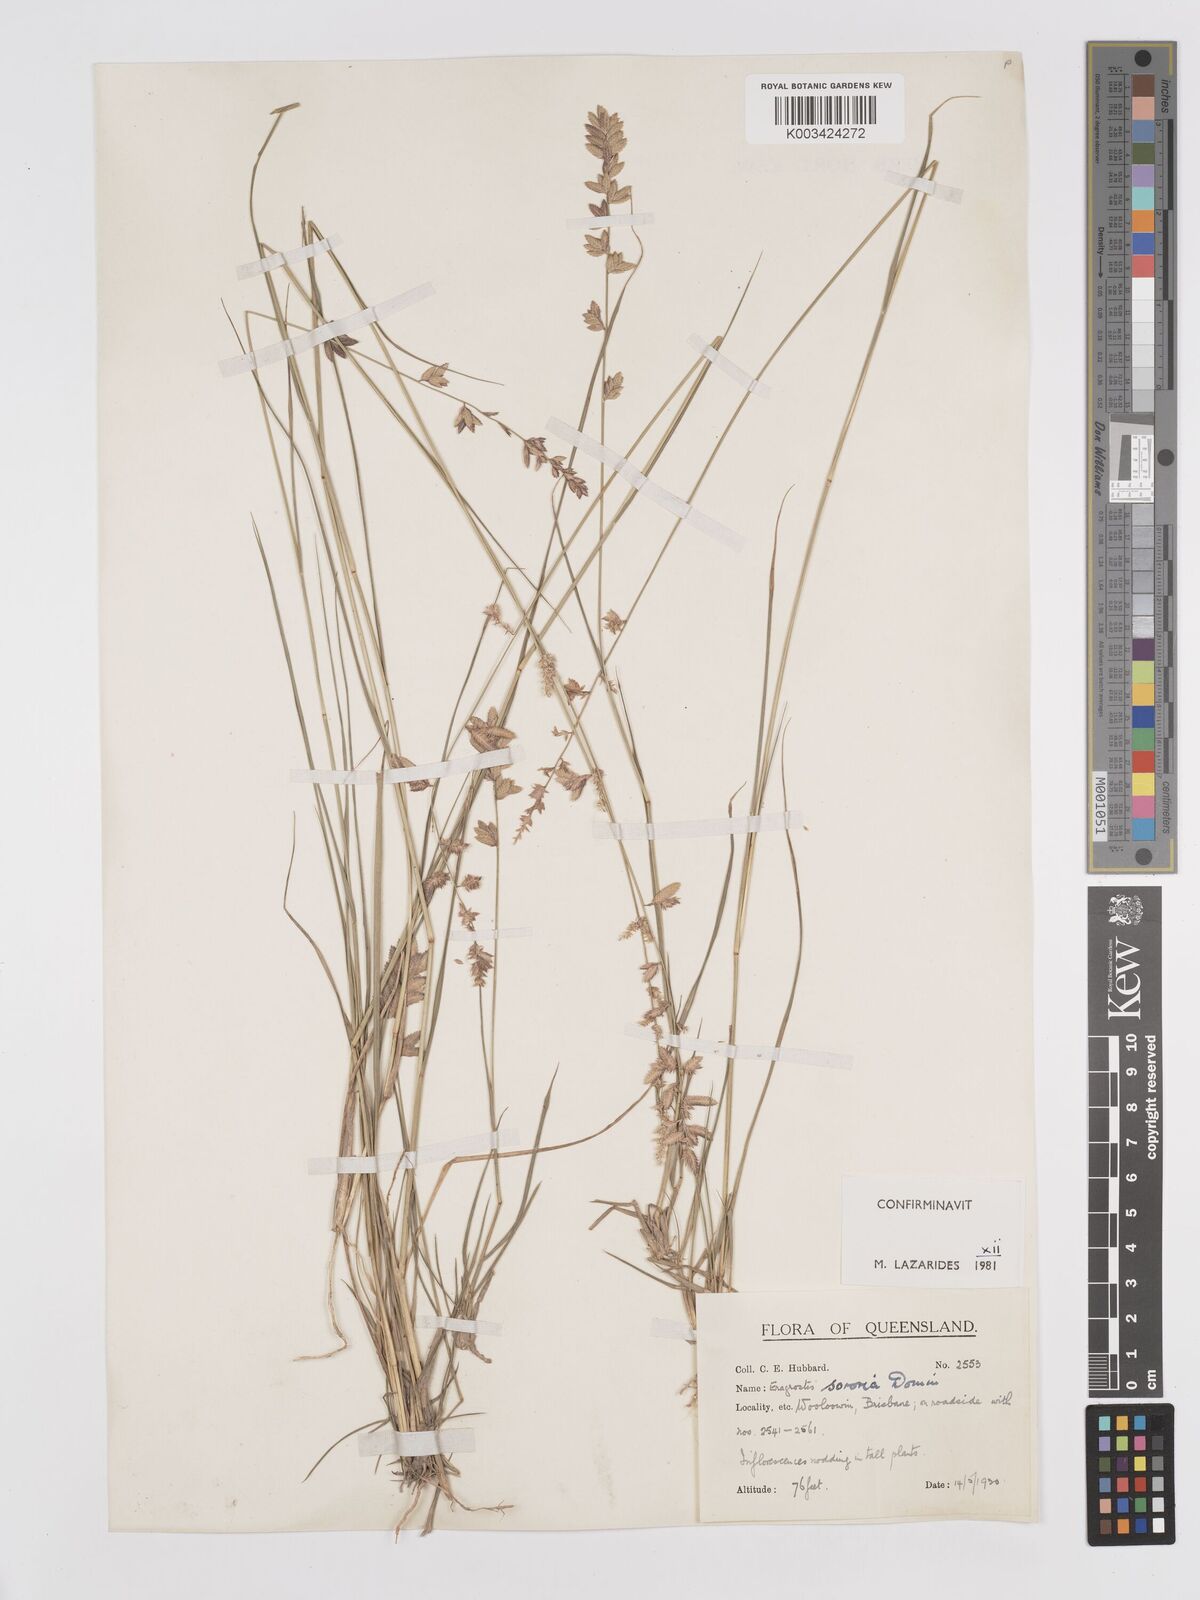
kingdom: Plantae
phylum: Tracheophyta
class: Liliopsida
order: Poales
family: Poaceae
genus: Eragrostis
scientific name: Eragrostis sororia
